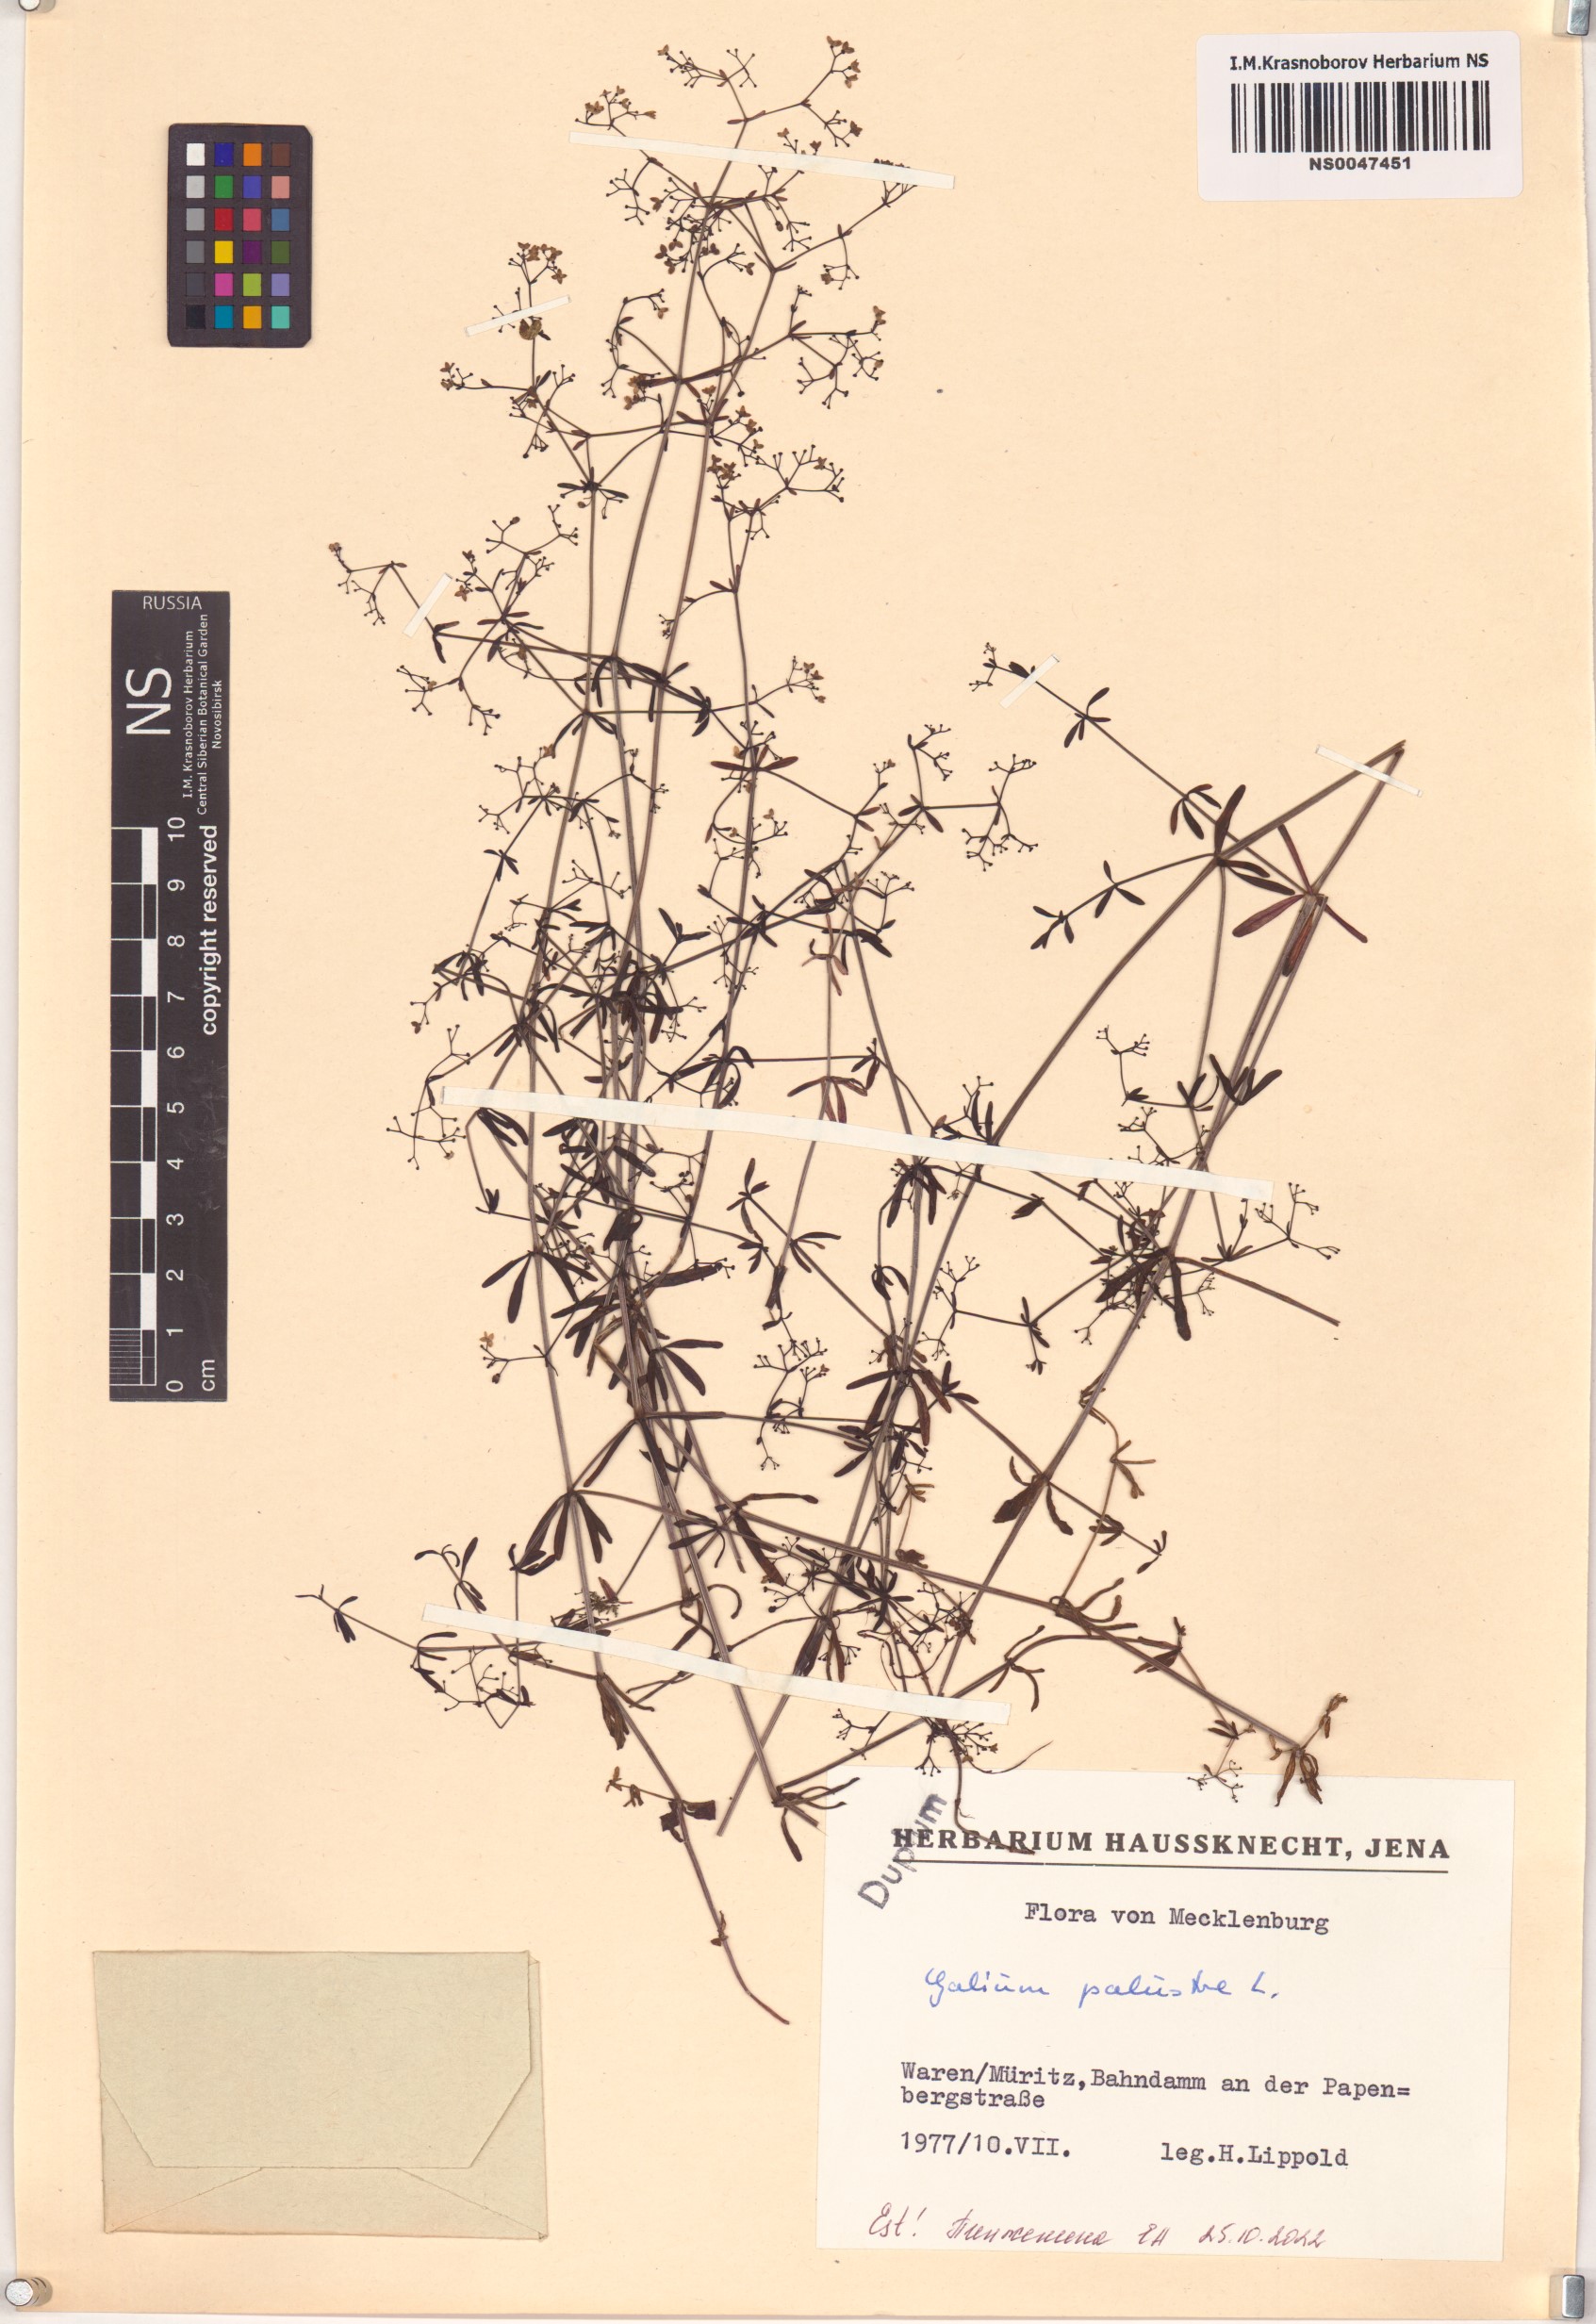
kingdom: Plantae
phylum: Tracheophyta
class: Magnoliopsida
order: Gentianales
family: Rubiaceae
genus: Galium
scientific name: Galium palustre
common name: Common marsh-bedstraw
